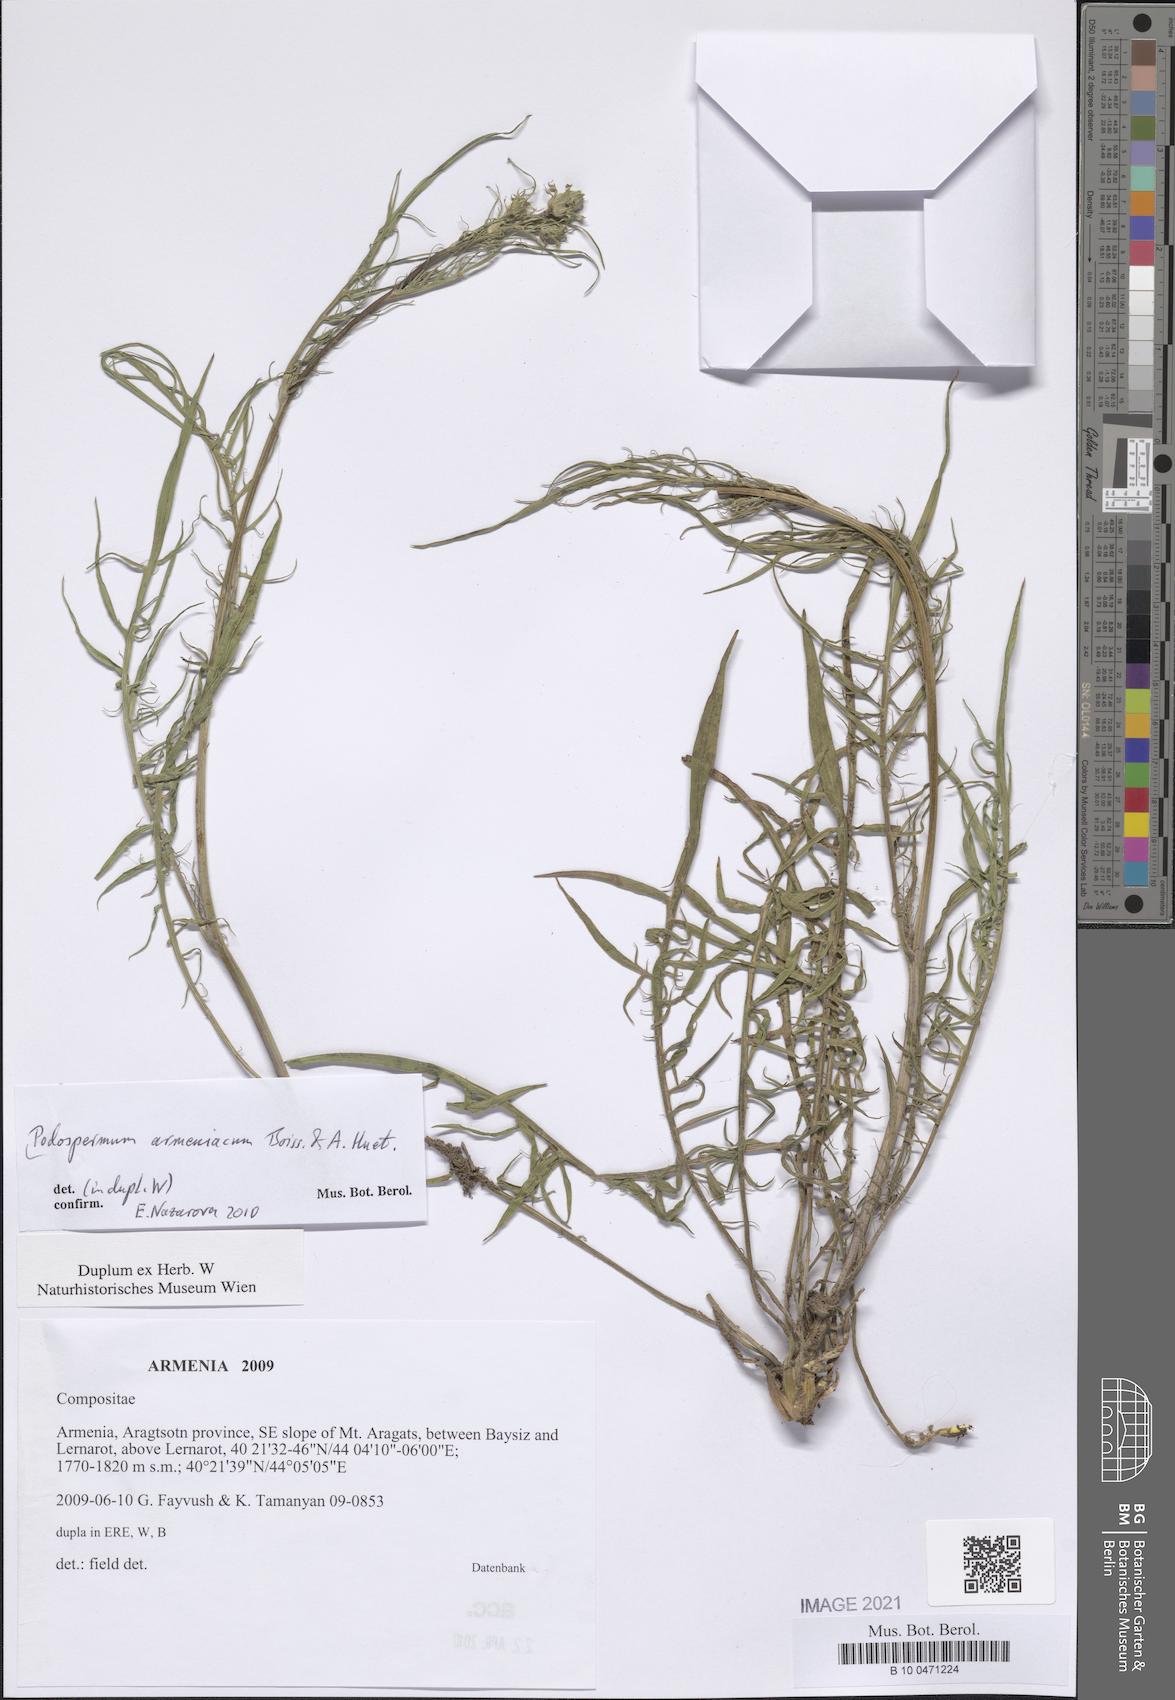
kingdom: Plantae
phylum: Tracheophyta
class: Magnoliopsida
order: Asterales
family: Asteraceae
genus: Scorzonera
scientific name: Scorzonera armeniaca
